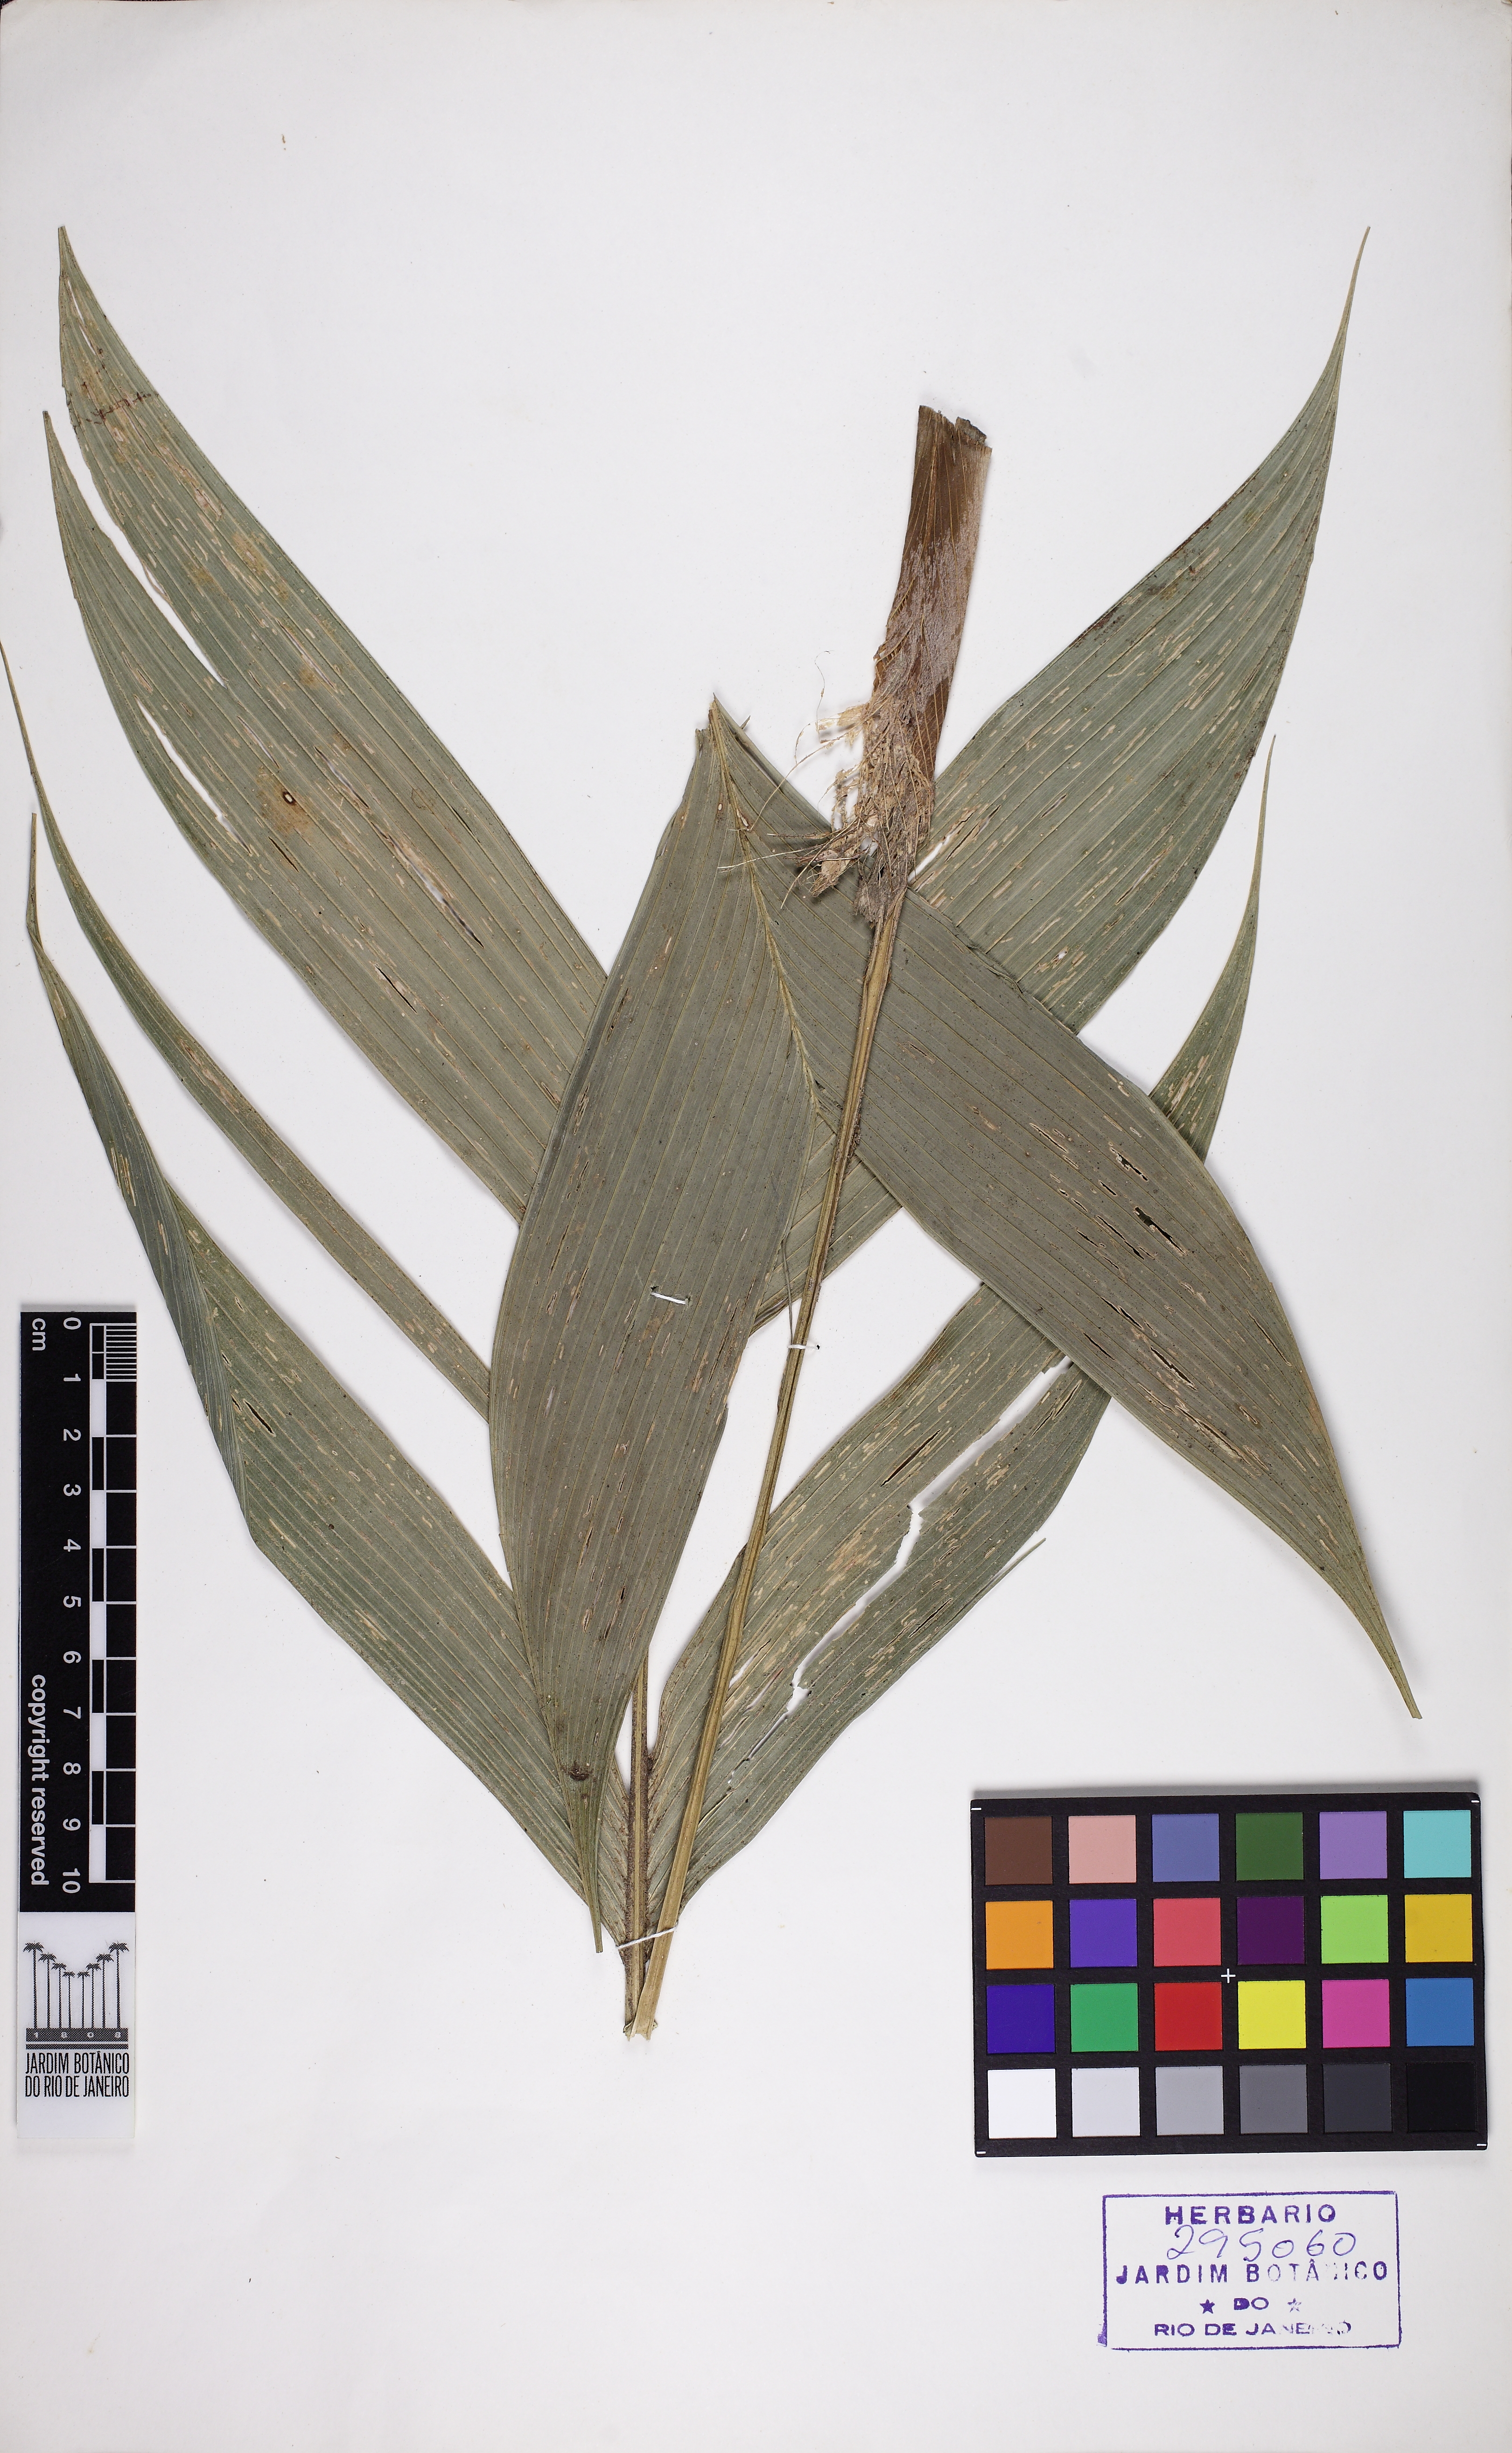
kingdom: Plantae
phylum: Tracheophyta
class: Liliopsida
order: Arecales
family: Arecaceae
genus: Geonoma
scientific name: Geonoma pohliana
